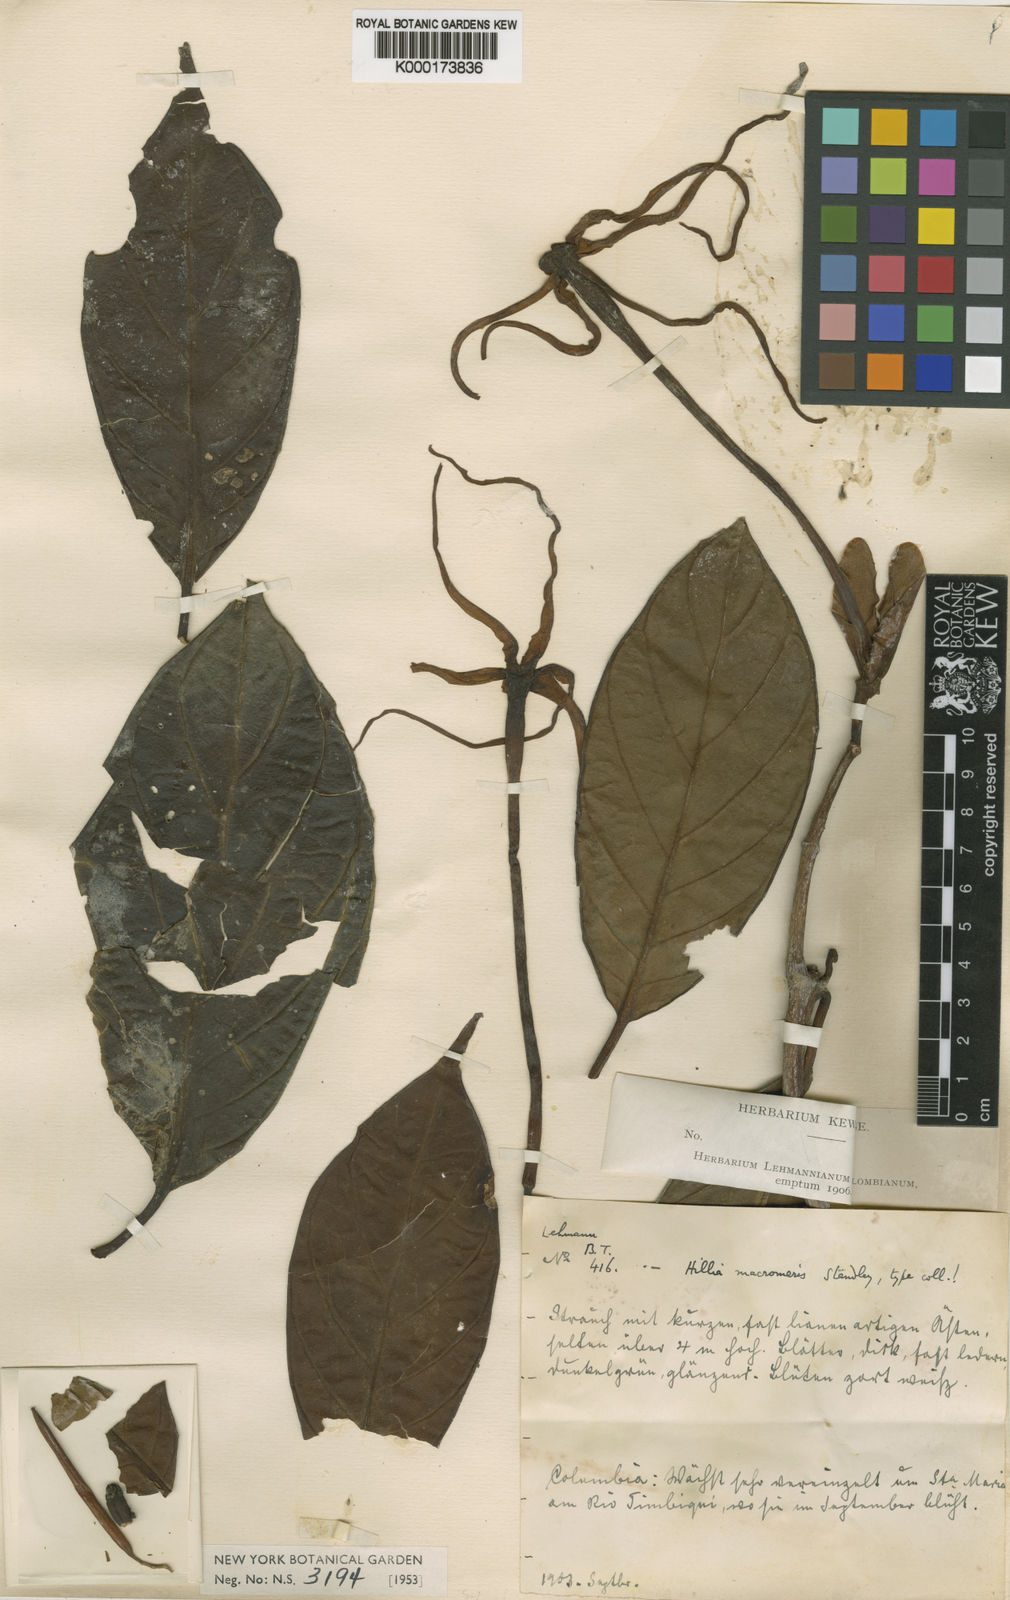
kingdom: Plantae
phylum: Tracheophyta
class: Magnoliopsida
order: Gentianales
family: Rubiaceae
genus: Hillia
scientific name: Hillia macromeris
